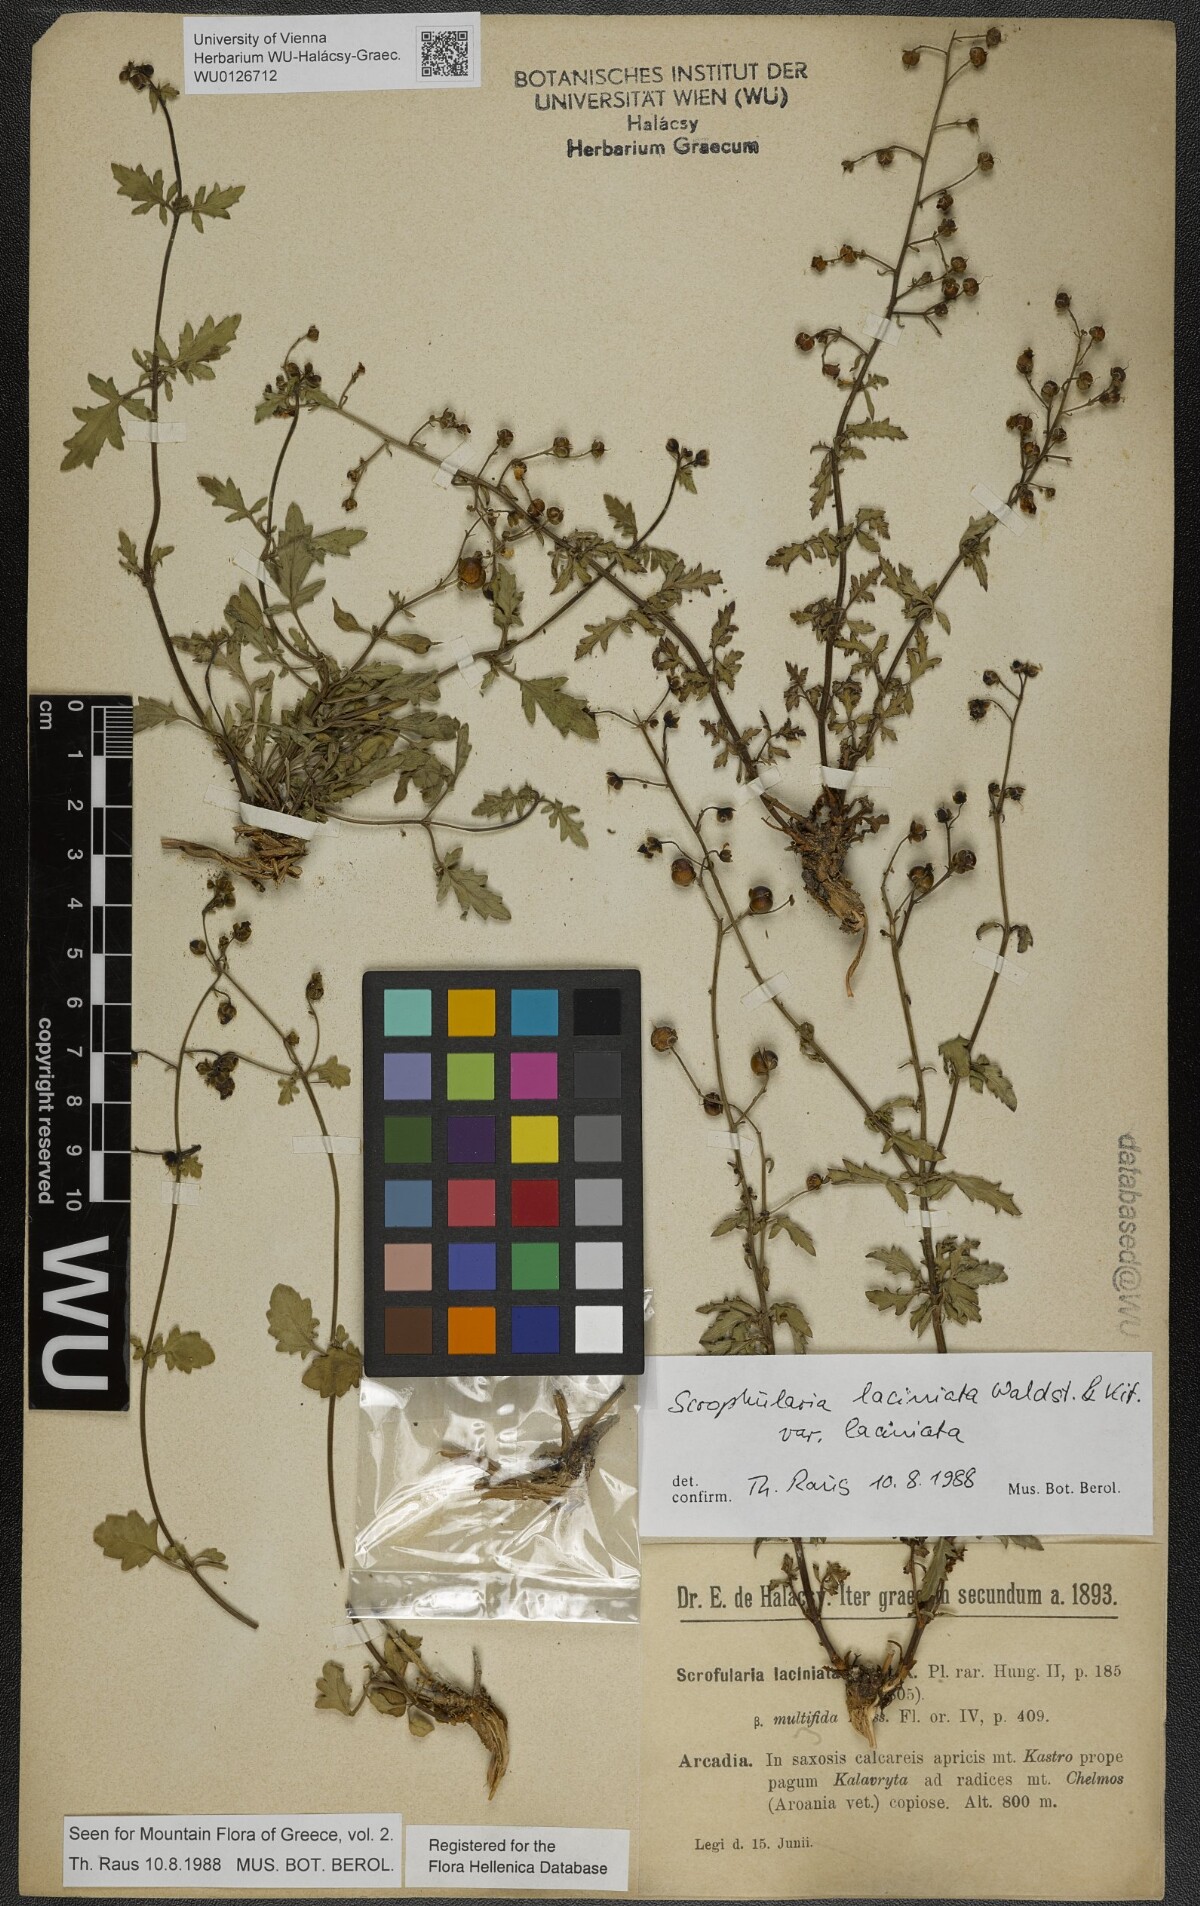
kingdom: Plantae
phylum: Tracheophyta
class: Magnoliopsida
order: Lamiales
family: Scrophulariaceae
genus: Scrophularia
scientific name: Scrophularia laciniata
